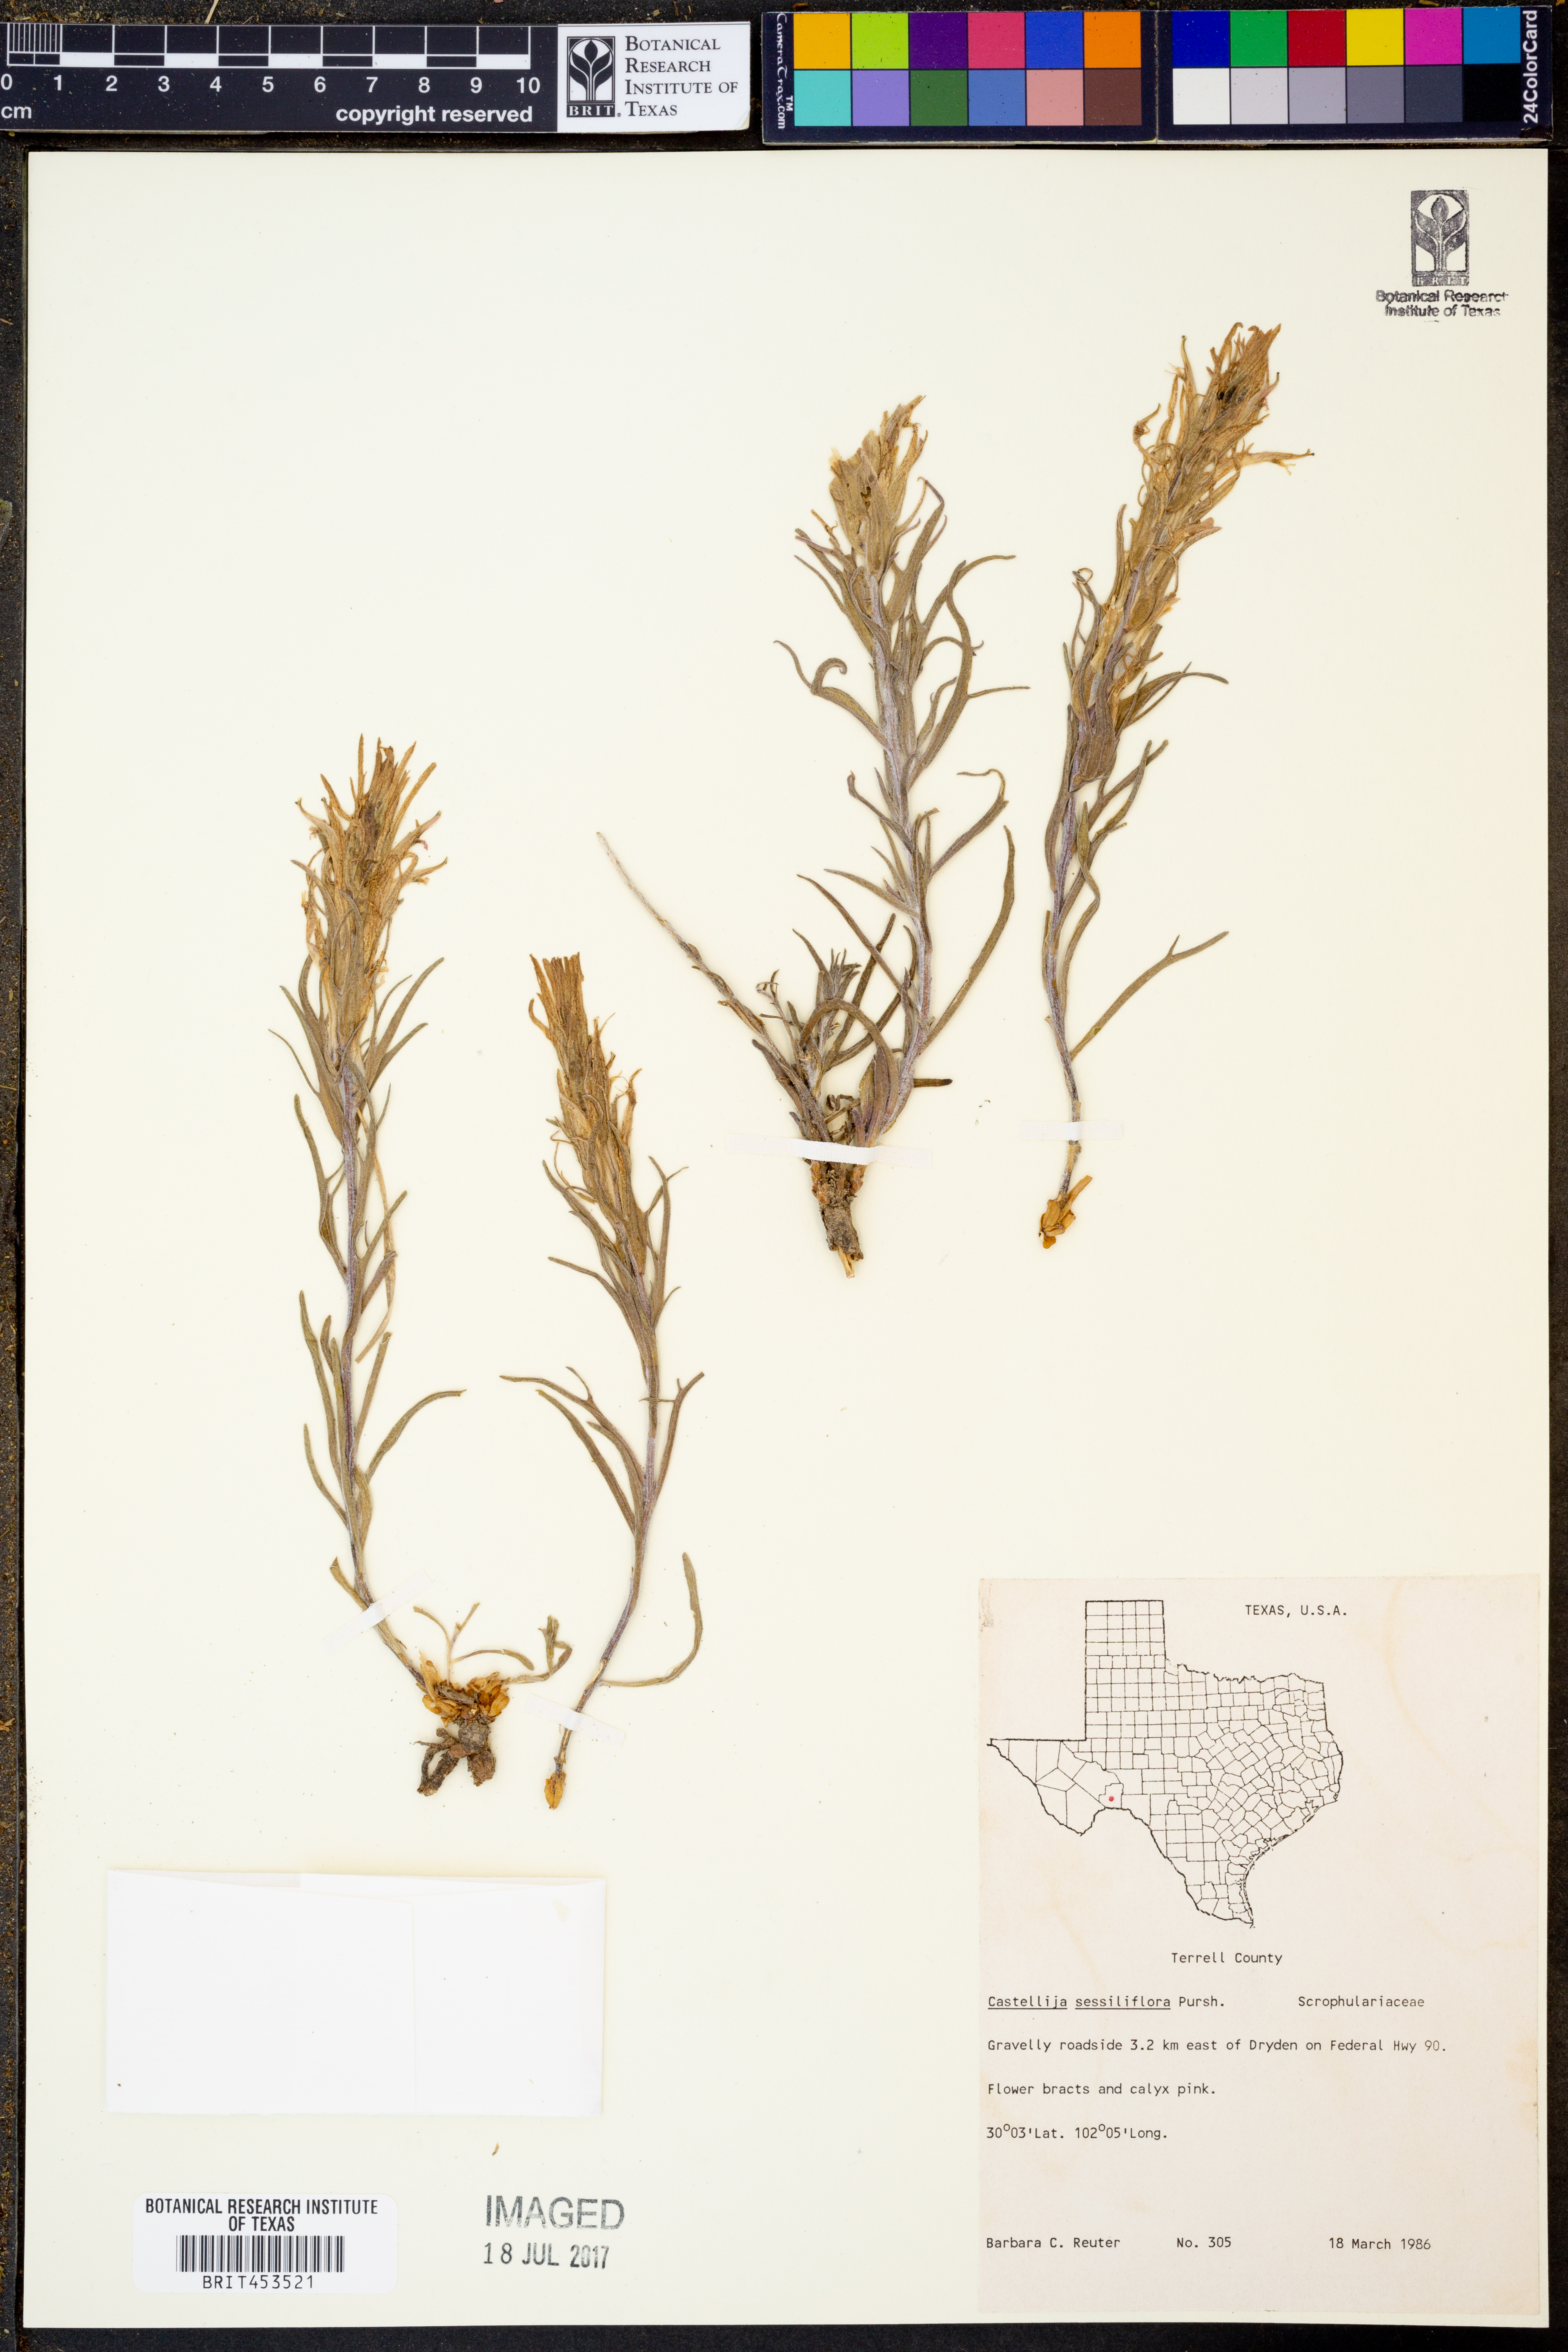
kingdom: Plantae
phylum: Tracheophyta
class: Magnoliopsida
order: Lamiales
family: Orobanchaceae
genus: Castilleja
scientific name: Castilleja sessiliflora
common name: Downy paintbrush
